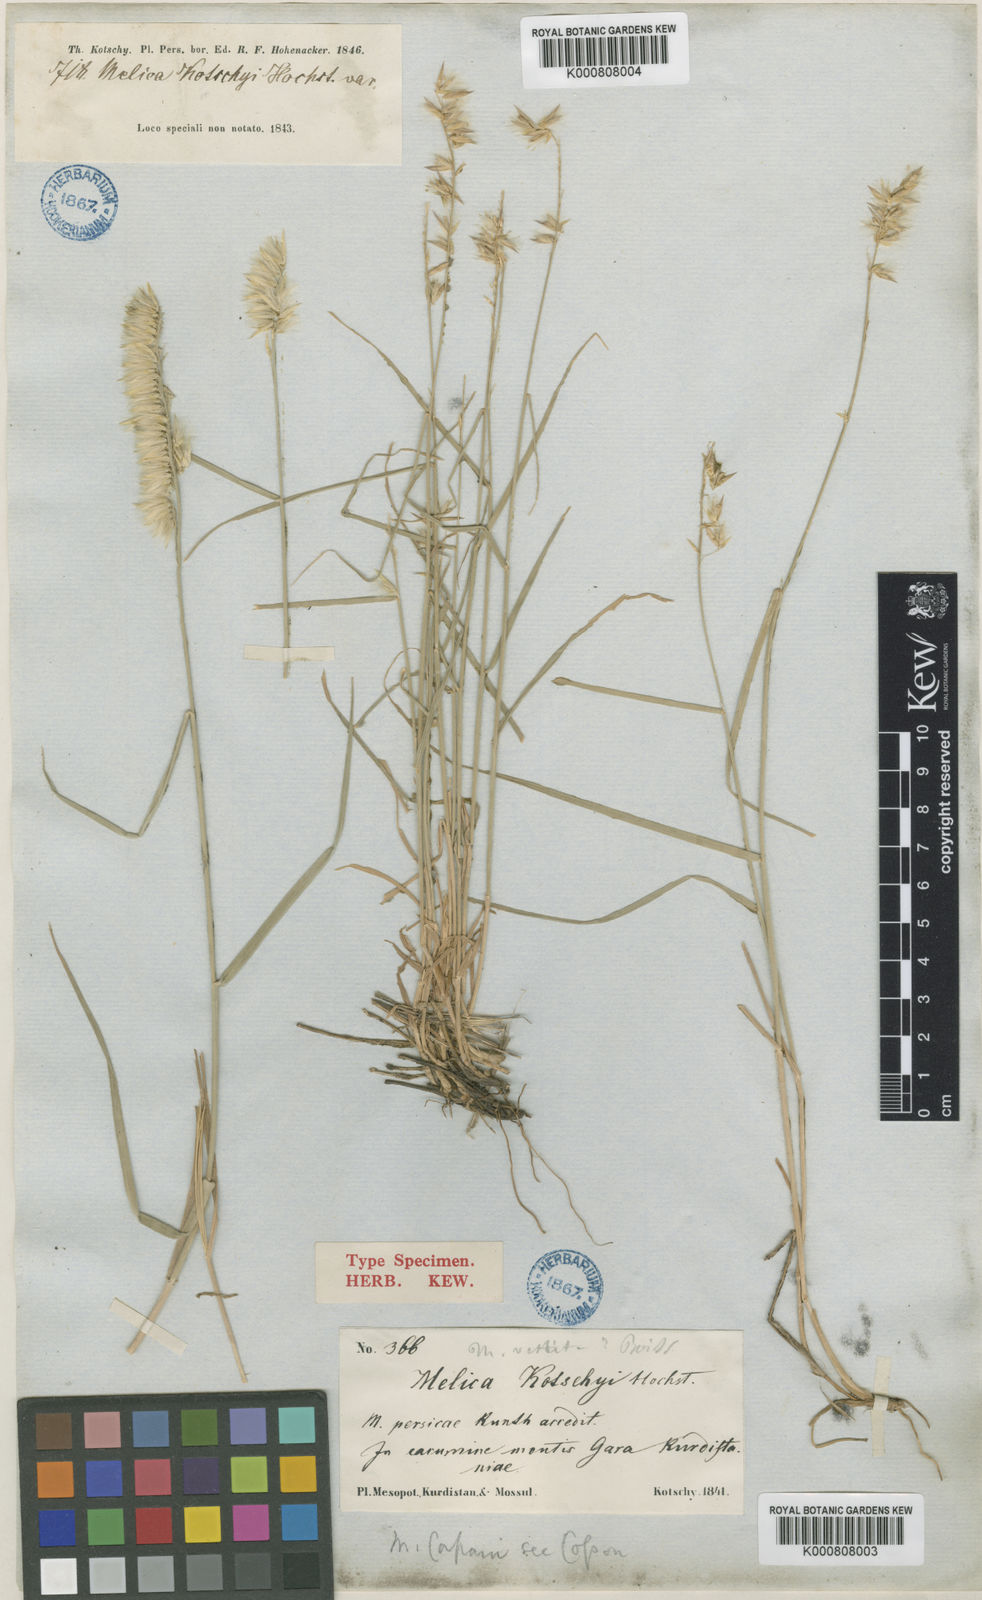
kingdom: Plantae
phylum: Tracheophyta
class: Liliopsida
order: Poales
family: Poaceae
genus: Melica
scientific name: Melica persica
